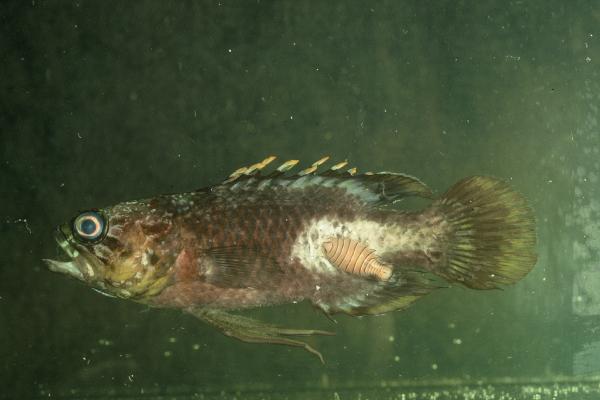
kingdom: Animalia
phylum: Chordata
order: Perciformes
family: Plesiopidae
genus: Plesiops
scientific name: Plesiops coeruleolineatus
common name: Crimsontip longfin
